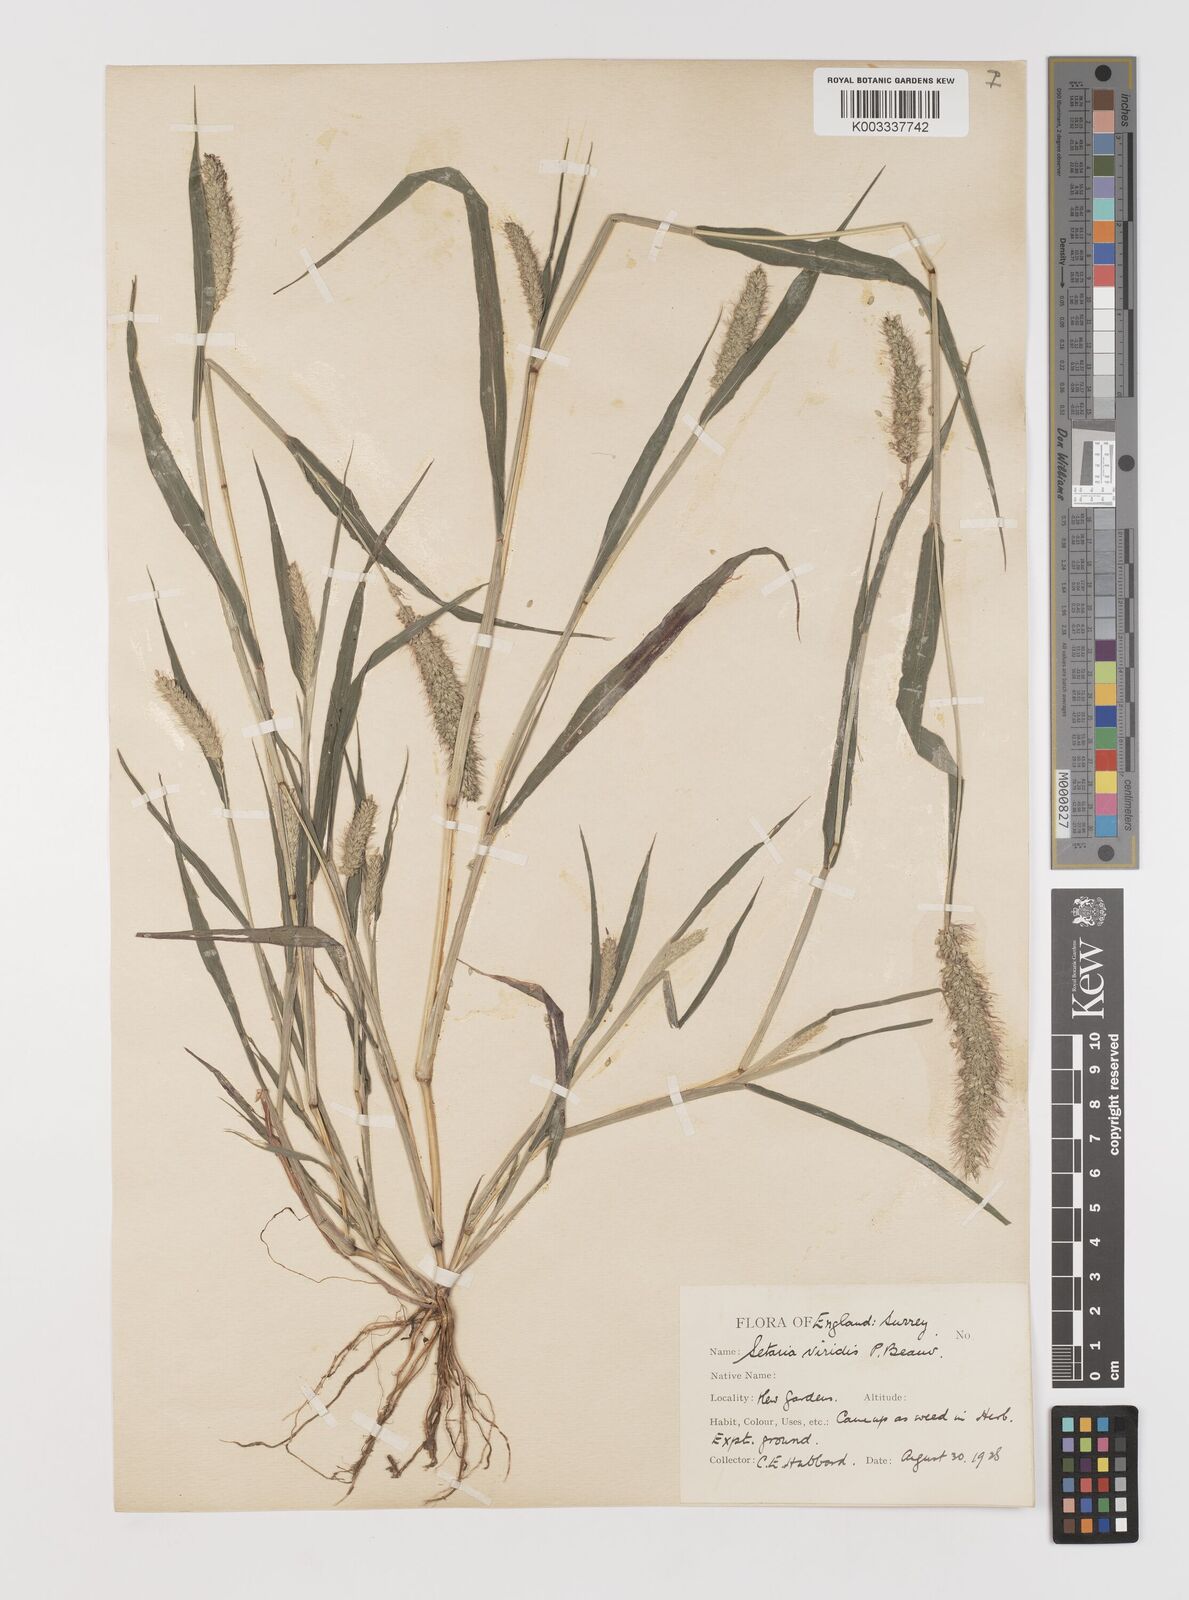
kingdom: Plantae
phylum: Tracheophyta
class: Liliopsida
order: Poales
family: Poaceae
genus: Setaria
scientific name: Setaria viridis
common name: Green bristlegrass
